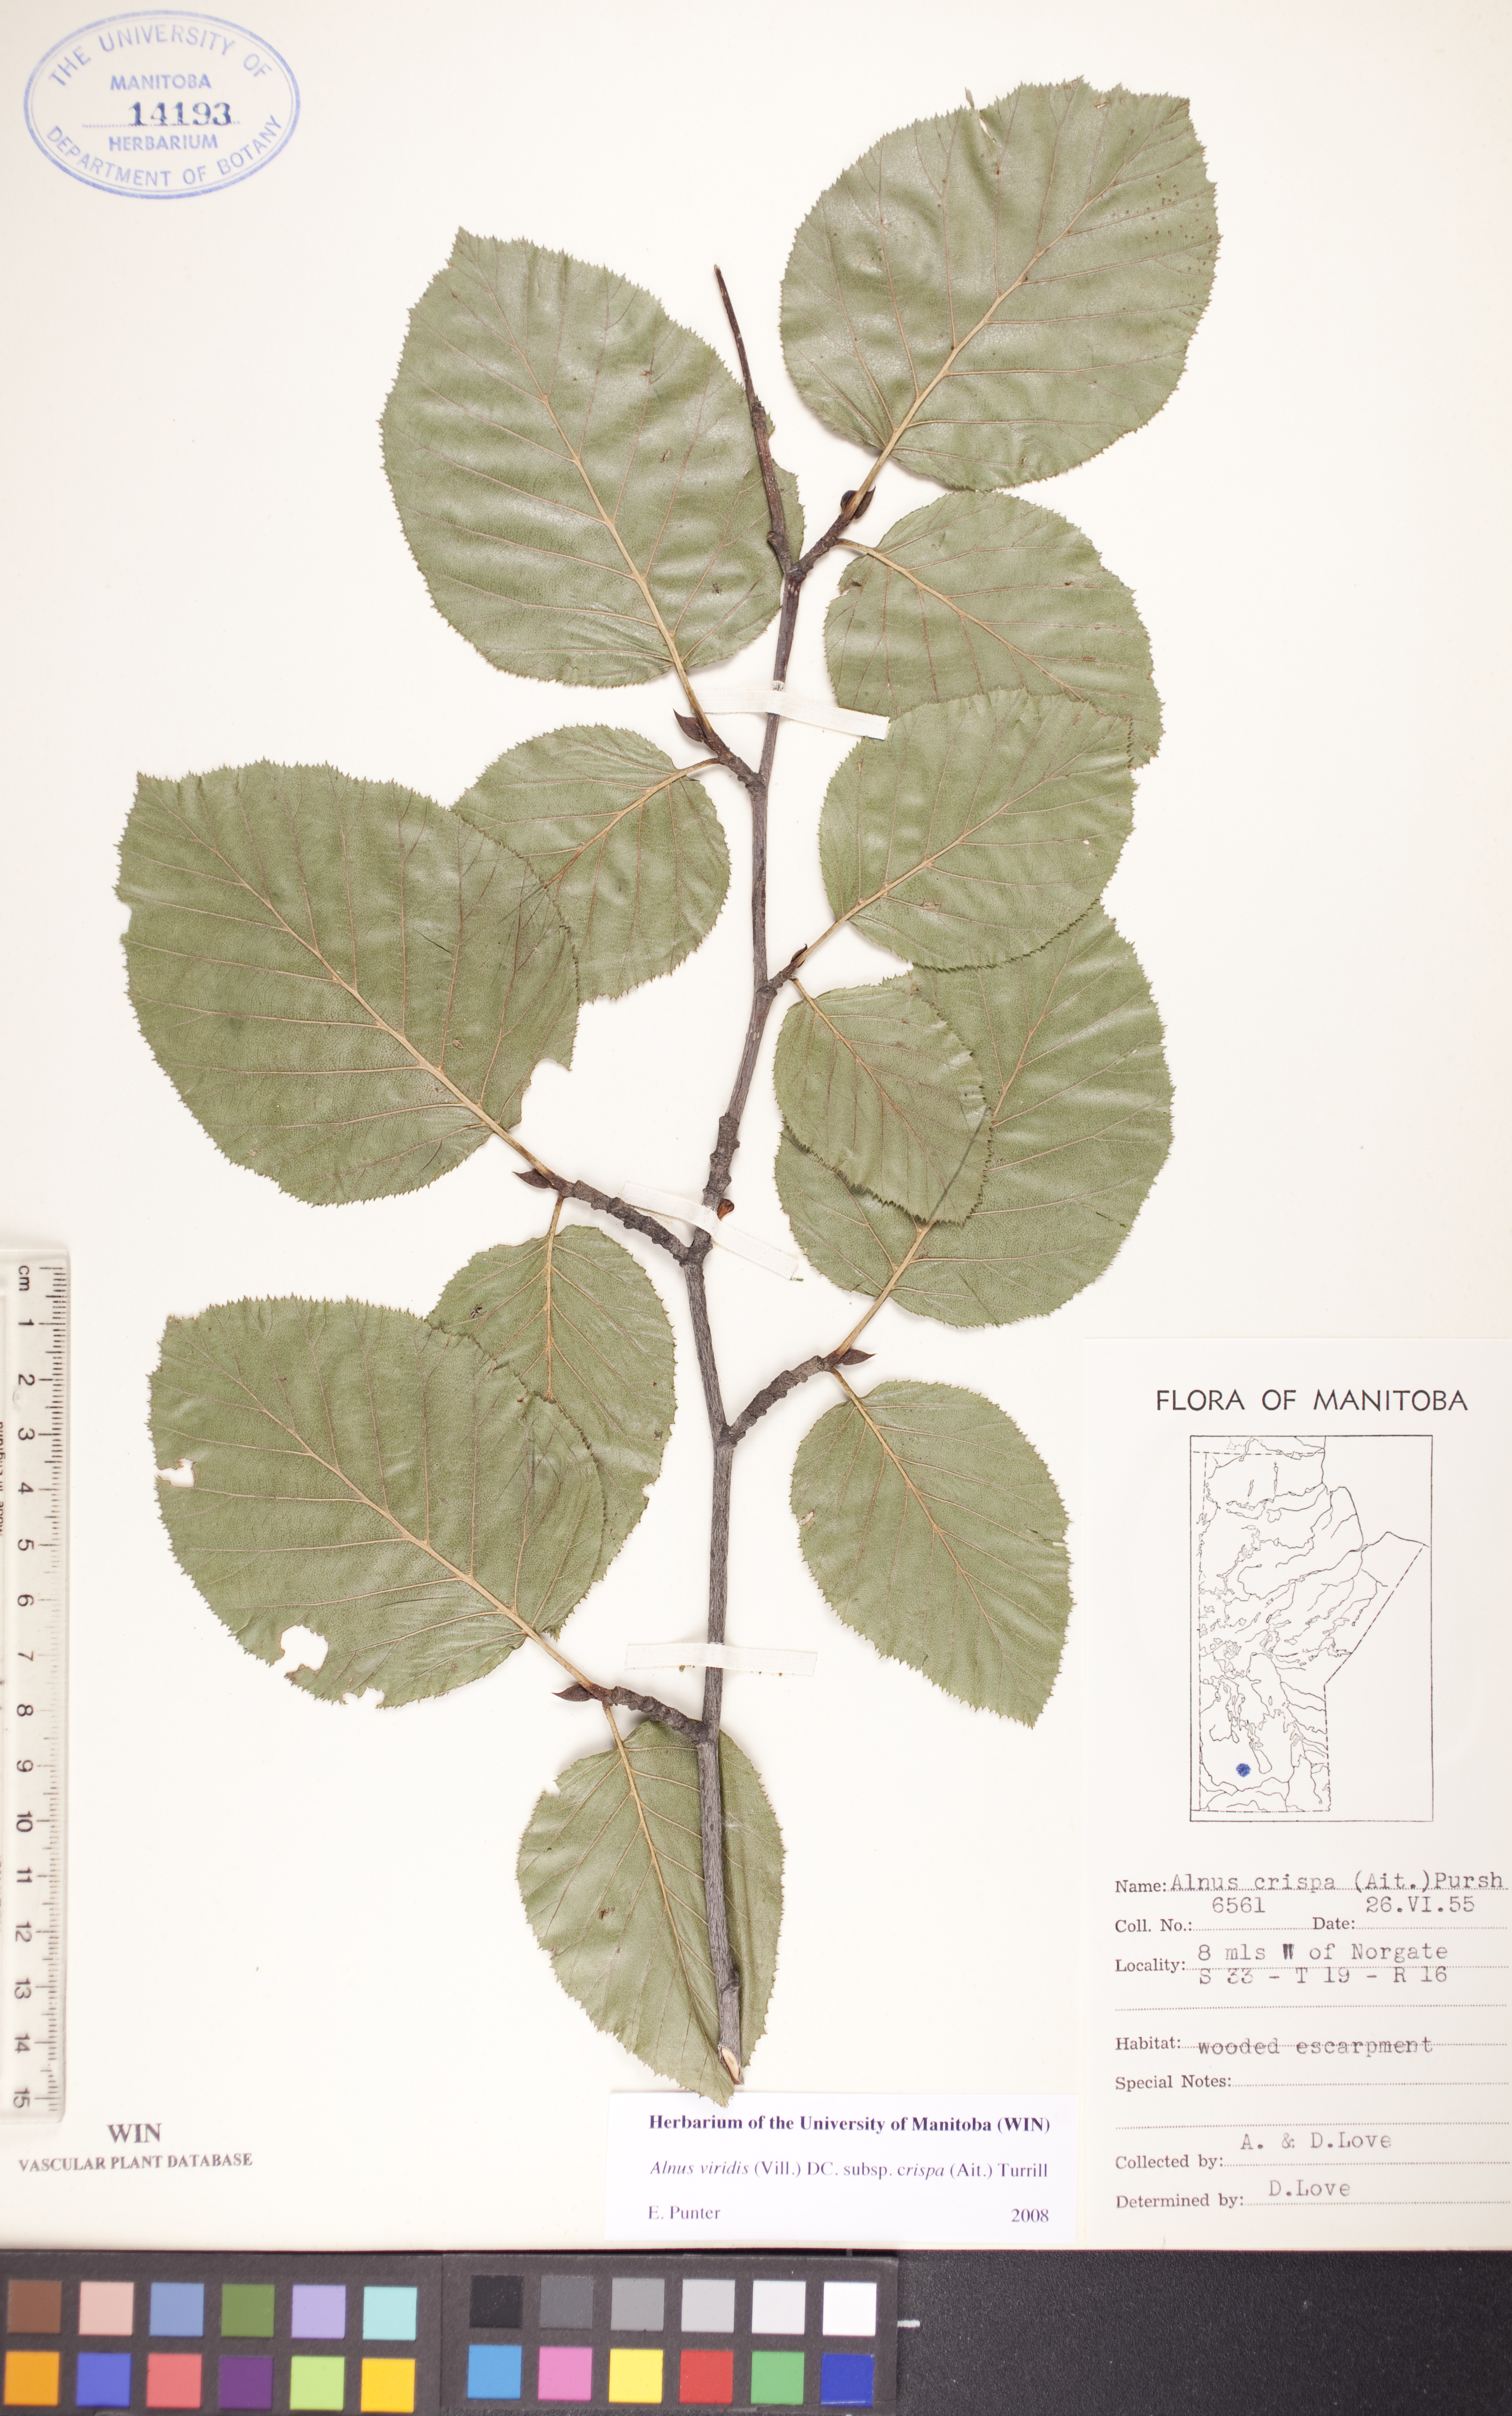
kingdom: Plantae
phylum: Tracheophyta
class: Magnoliopsida
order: Fagales
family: Betulaceae
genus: Alnus
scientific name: Alnus alnobetula
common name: Green alder
